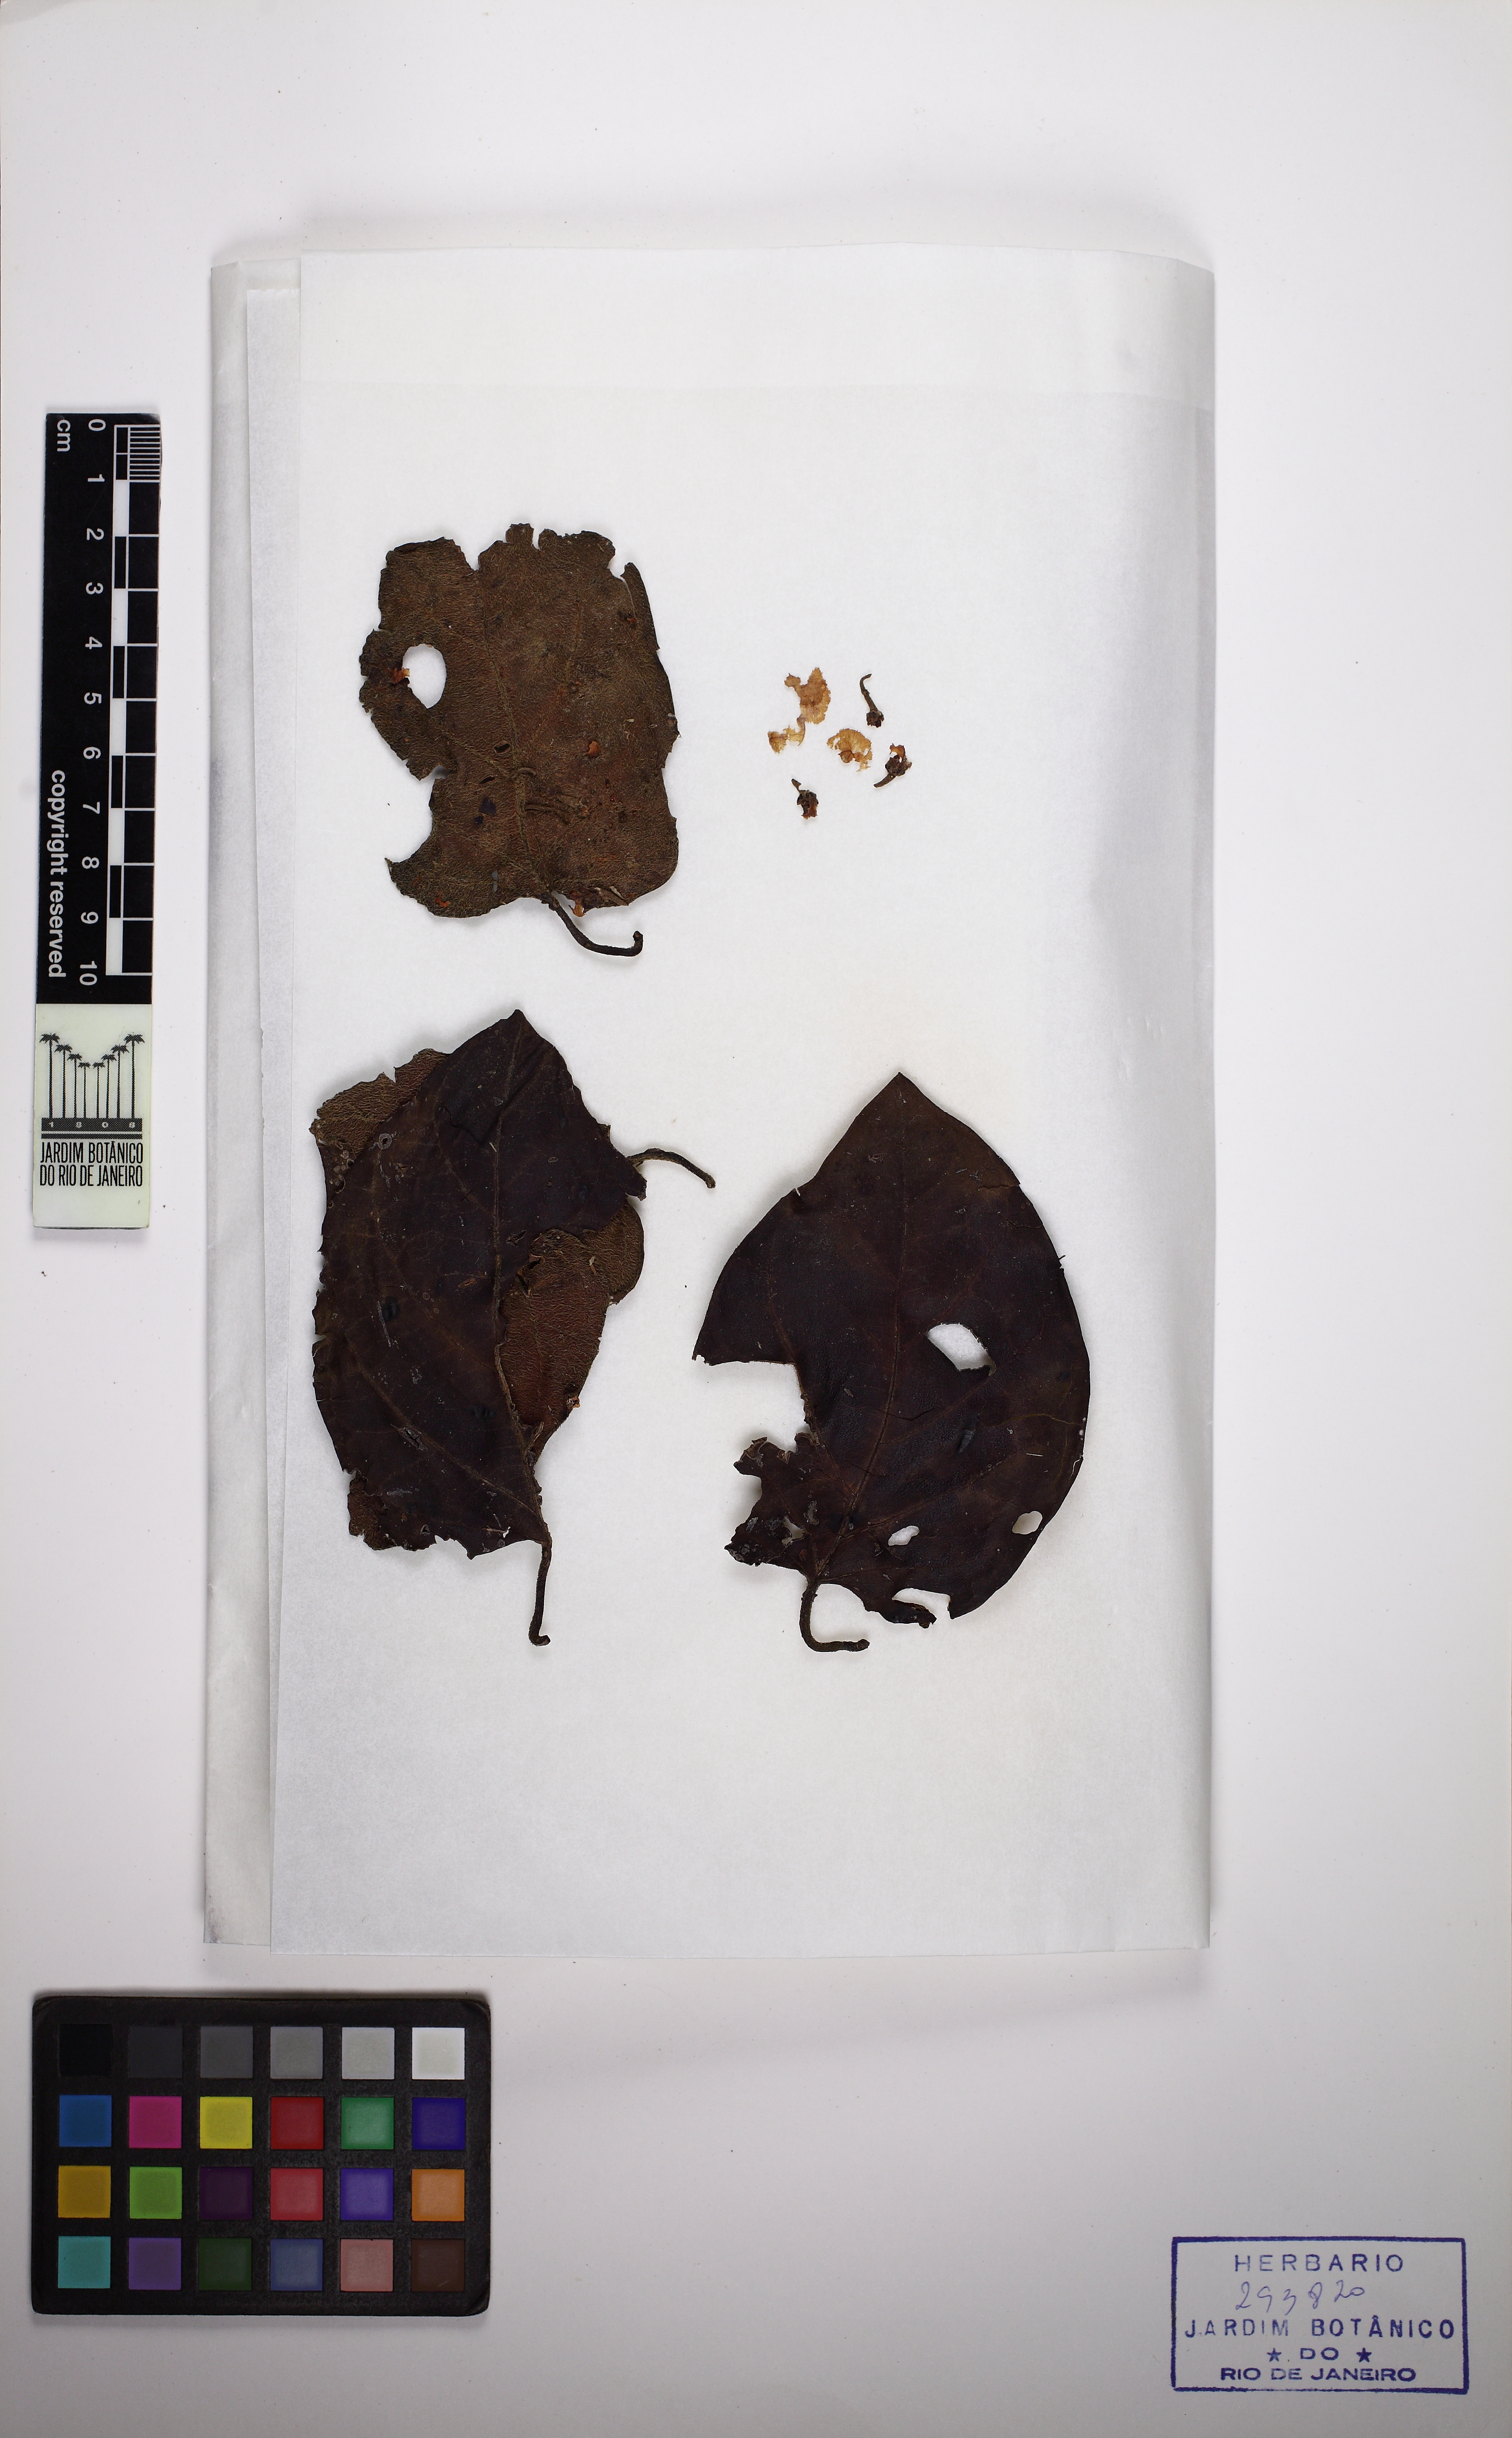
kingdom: Plantae
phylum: Tracheophyta
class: Magnoliopsida
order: Malpighiales
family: Malpighiaceae
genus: Stigmaphyllon
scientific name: Stigmaphyllon gayanum
